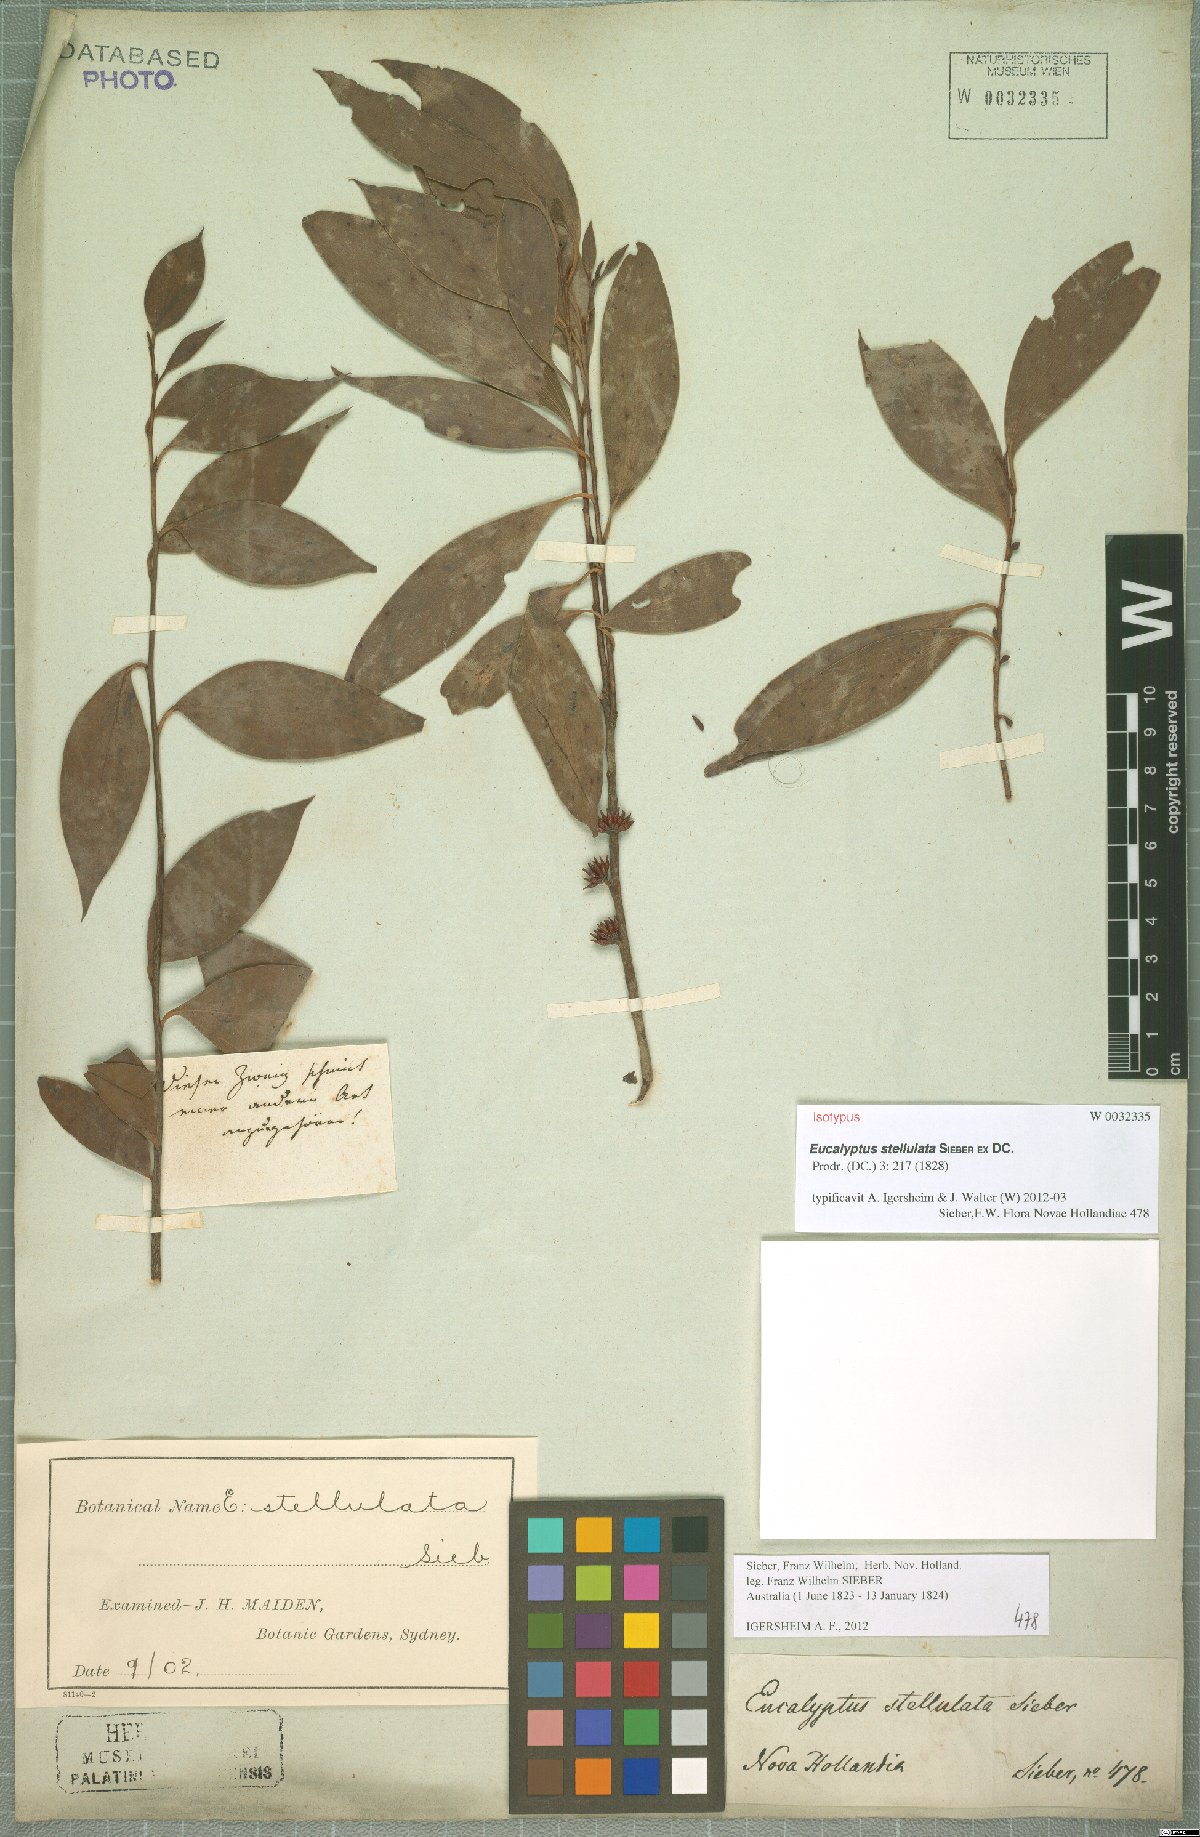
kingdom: Plantae
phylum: Tracheophyta
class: Magnoliopsida
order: Myrtales
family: Myrtaceae
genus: Eucalyptus
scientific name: Eucalyptus stellulata
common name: Black sallee
